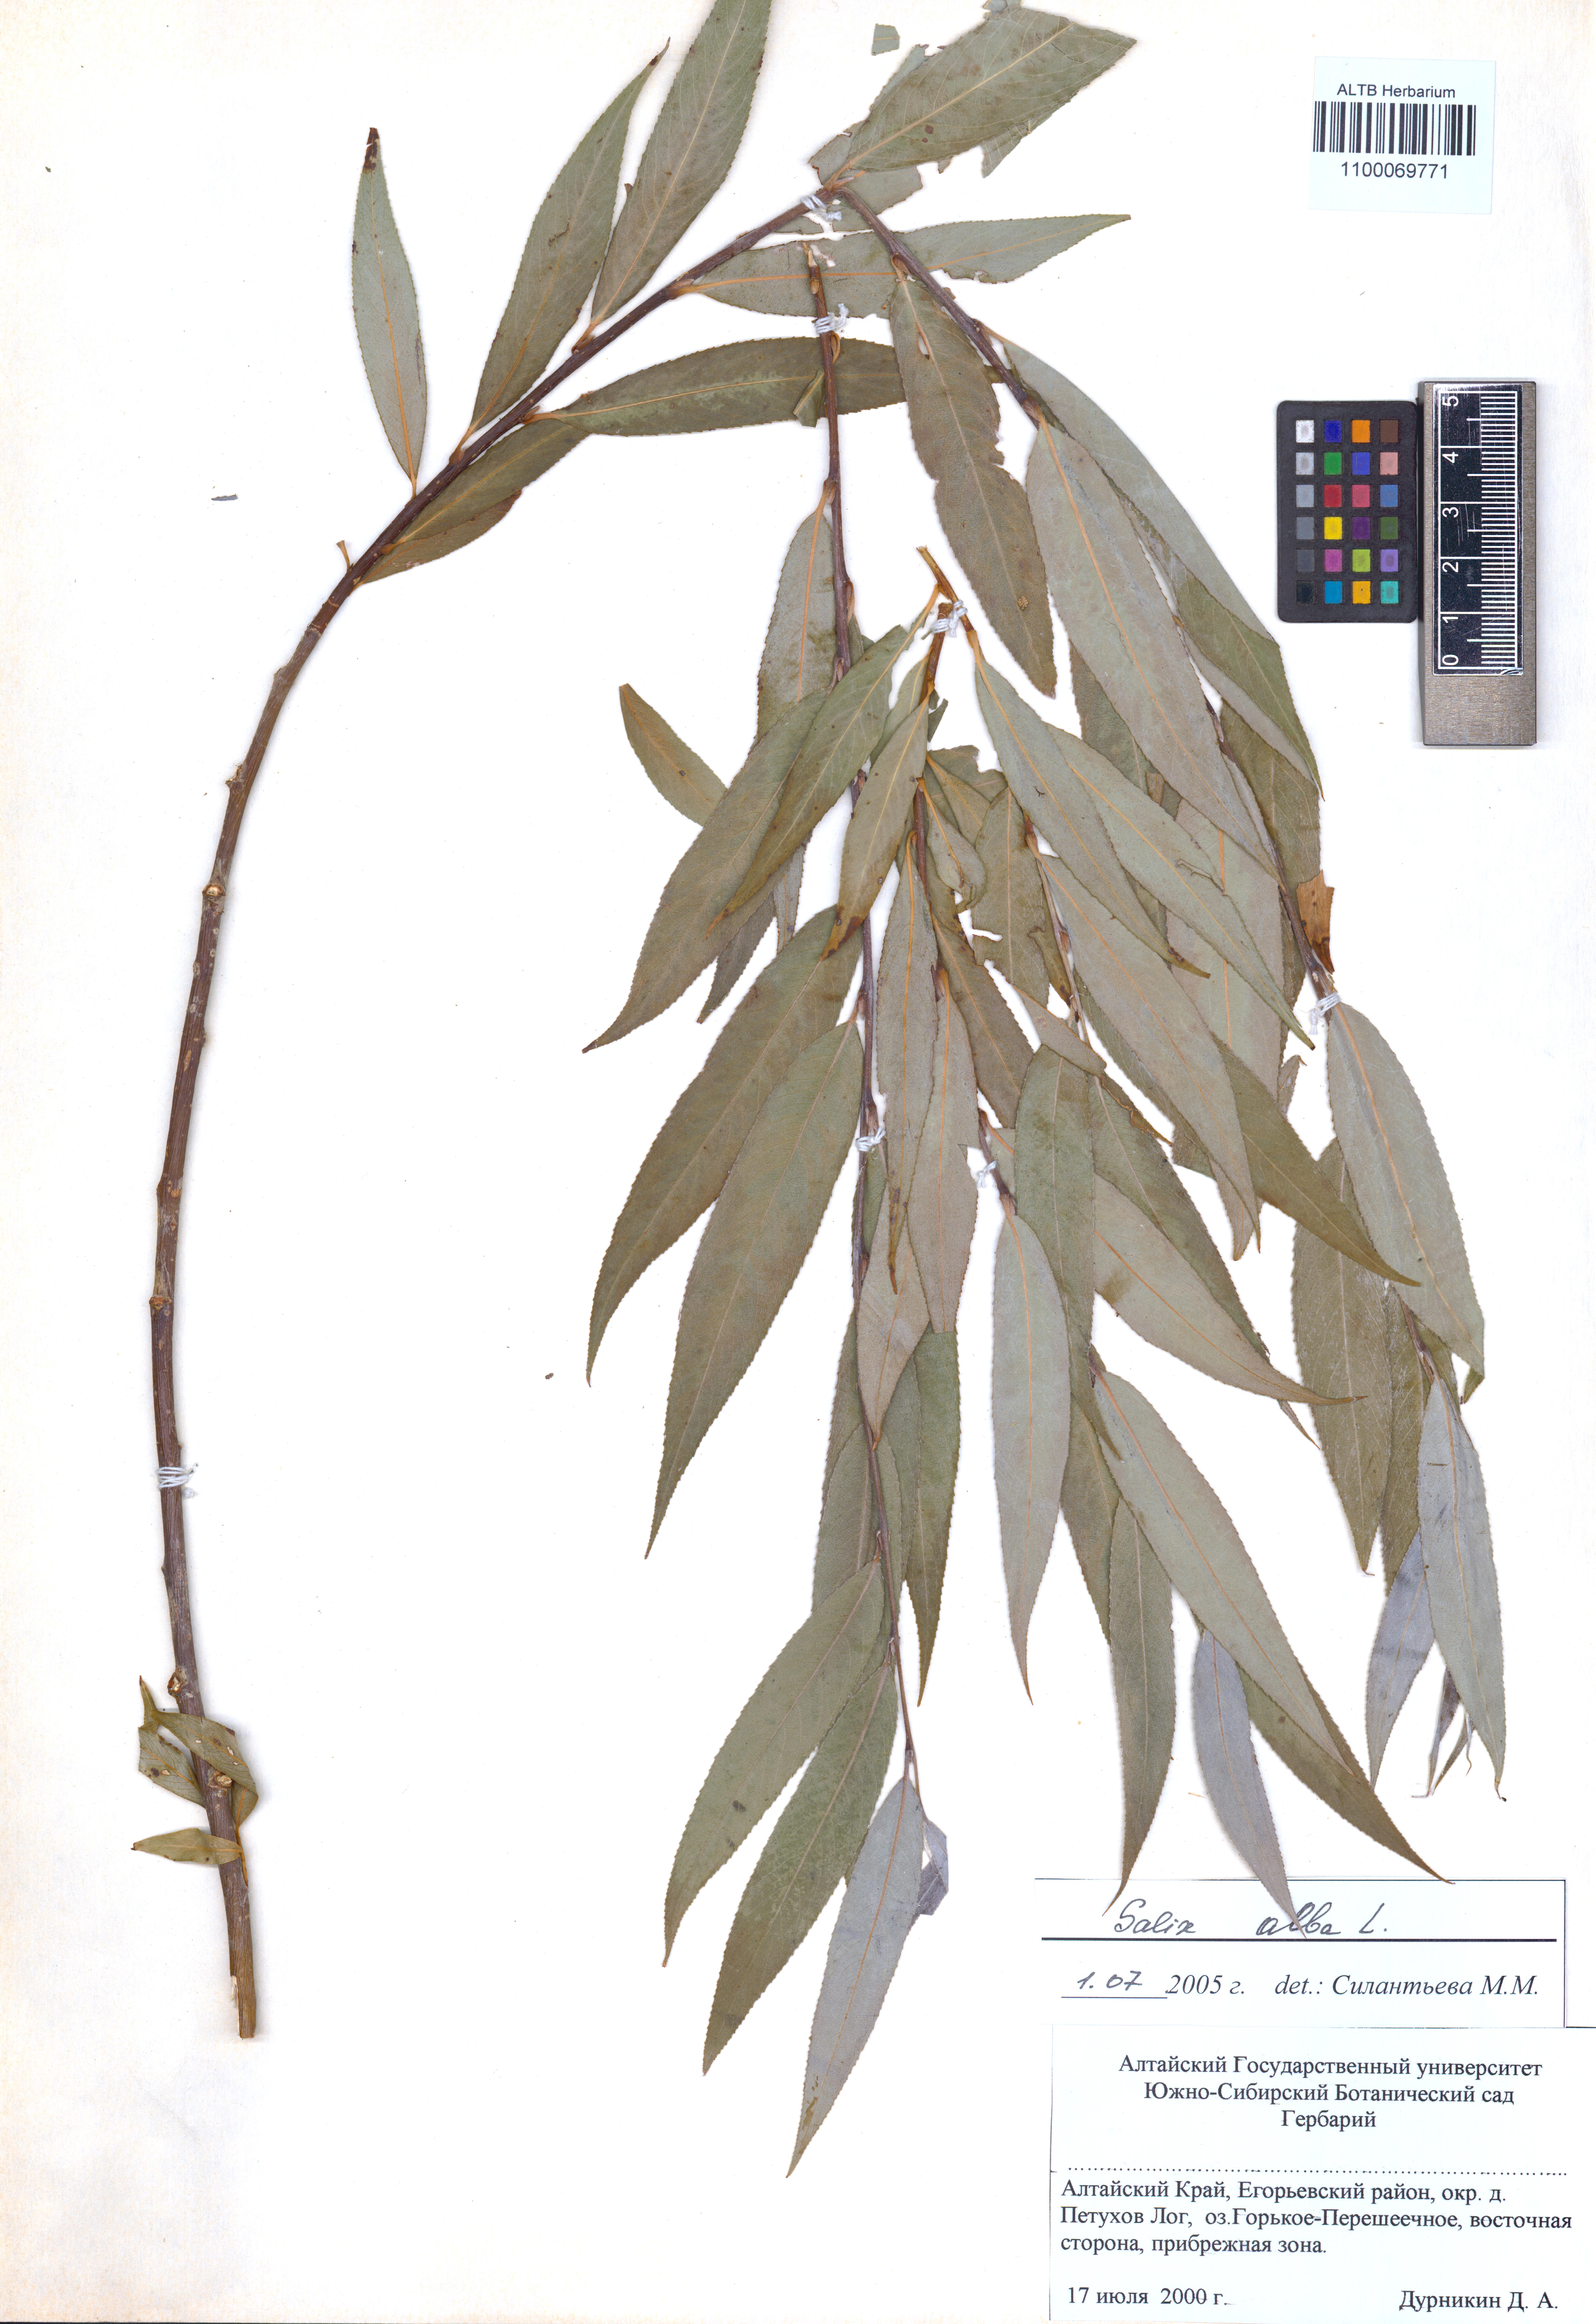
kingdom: Plantae
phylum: Tracheophyta
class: Magnoliopsida
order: Malpighiales
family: Salicaceae
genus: Salix
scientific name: Salix alba
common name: White willow
